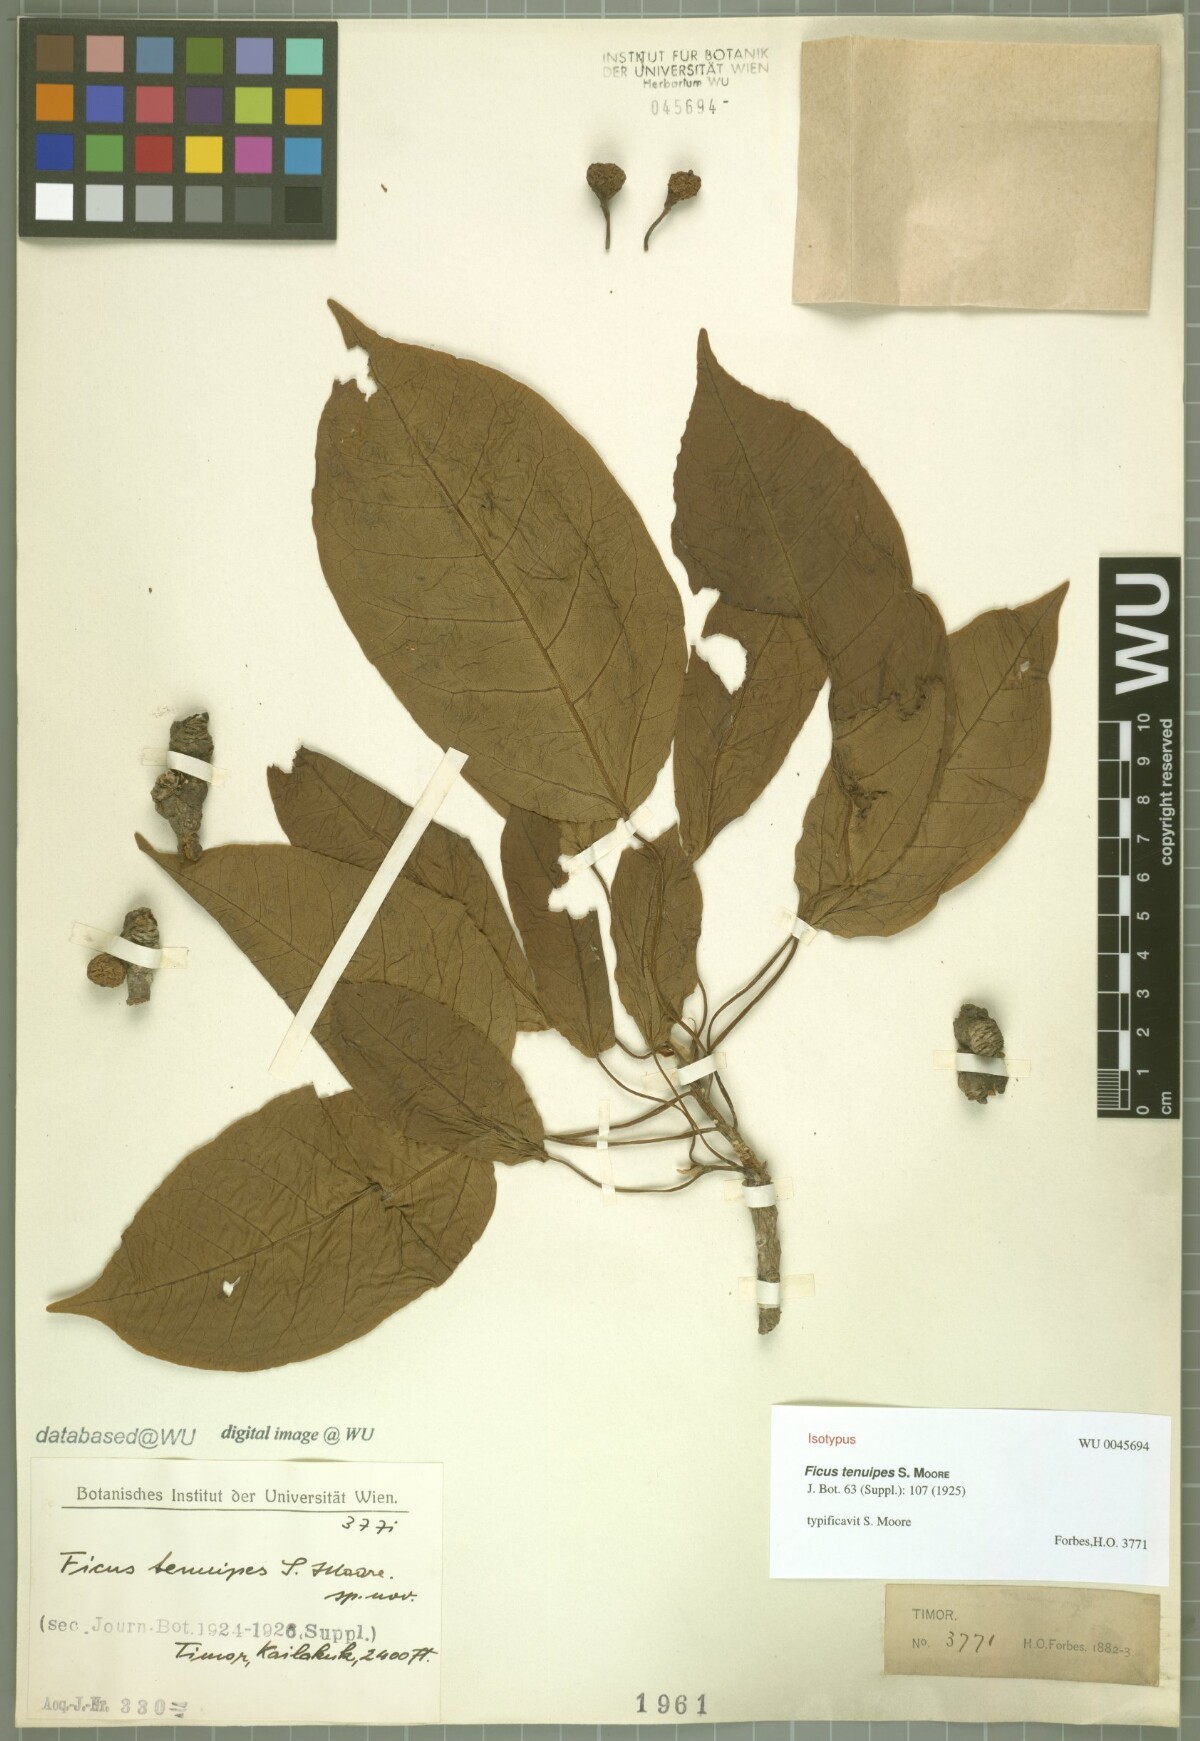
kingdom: Plantae
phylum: Tracheophyta
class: Magnoliopsida
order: Rosales
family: Moraceae
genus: Ficus
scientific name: Ficus superba
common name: Cedar fig
